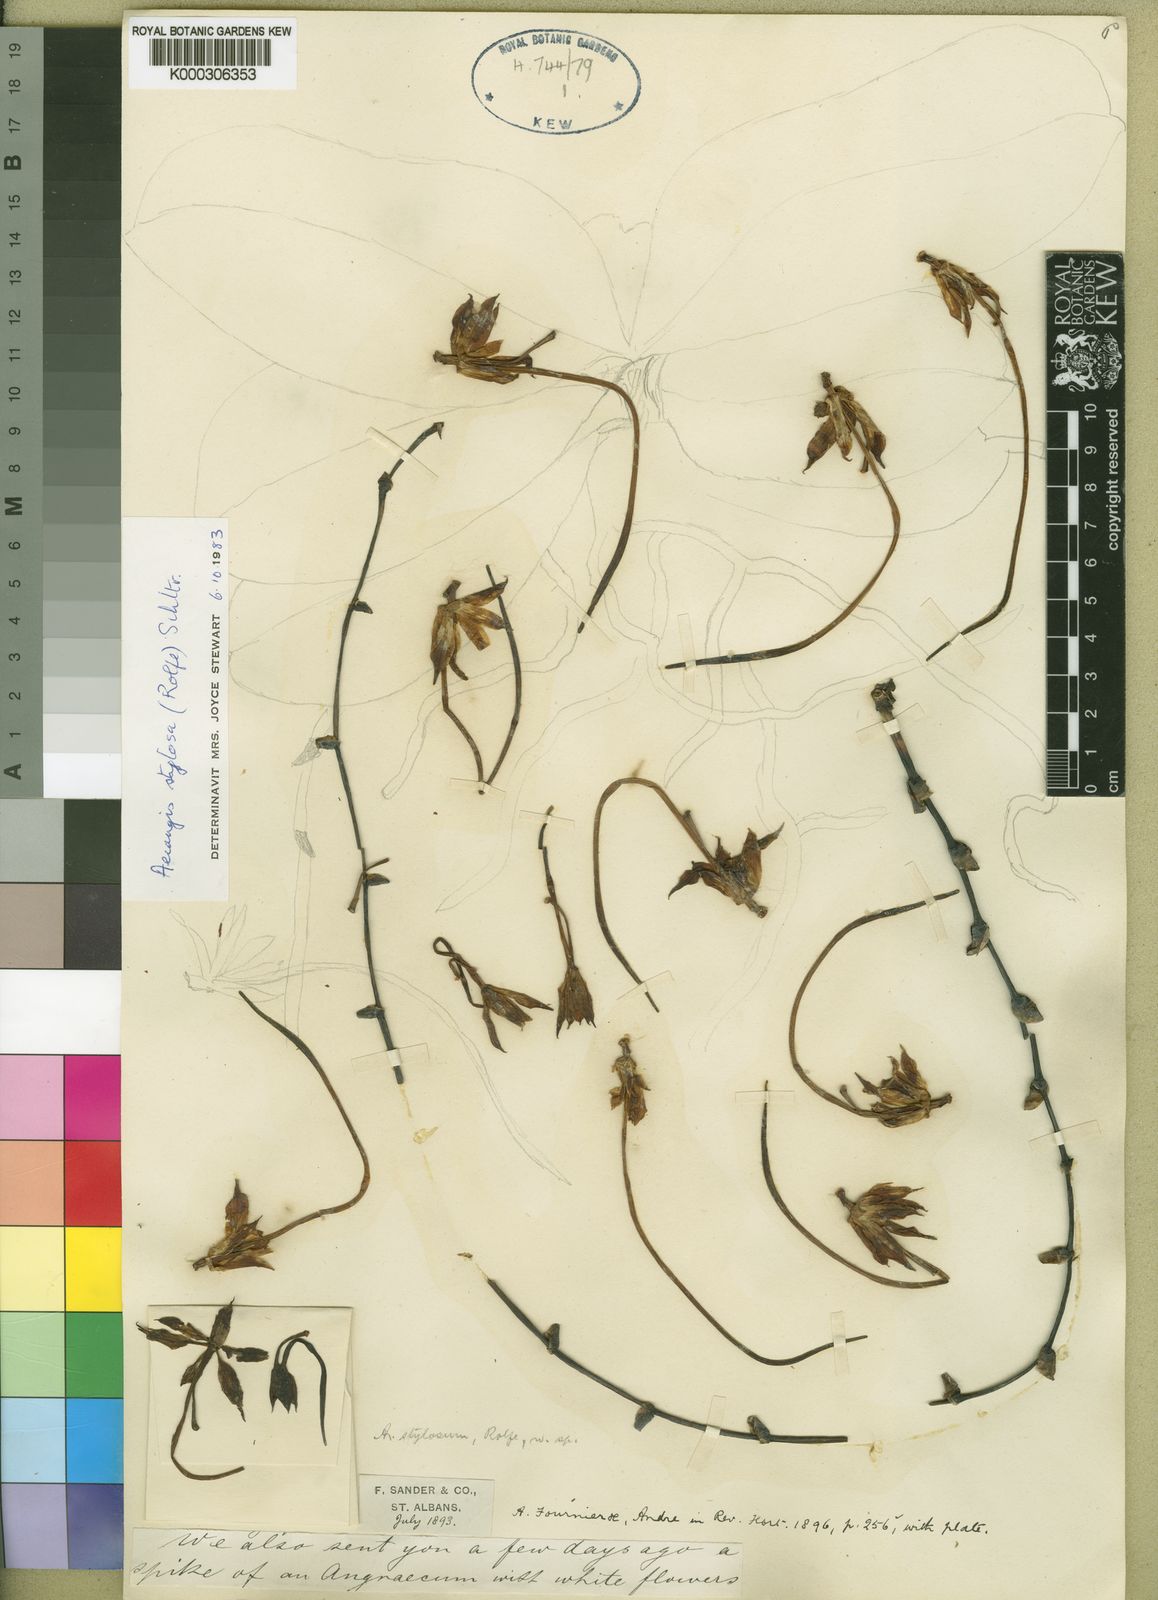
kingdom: Plantae
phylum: Tracheophyta
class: Liliopsida
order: Asparagales
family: Orchidaceae
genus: Aerangis
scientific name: Aerangis stylosa
